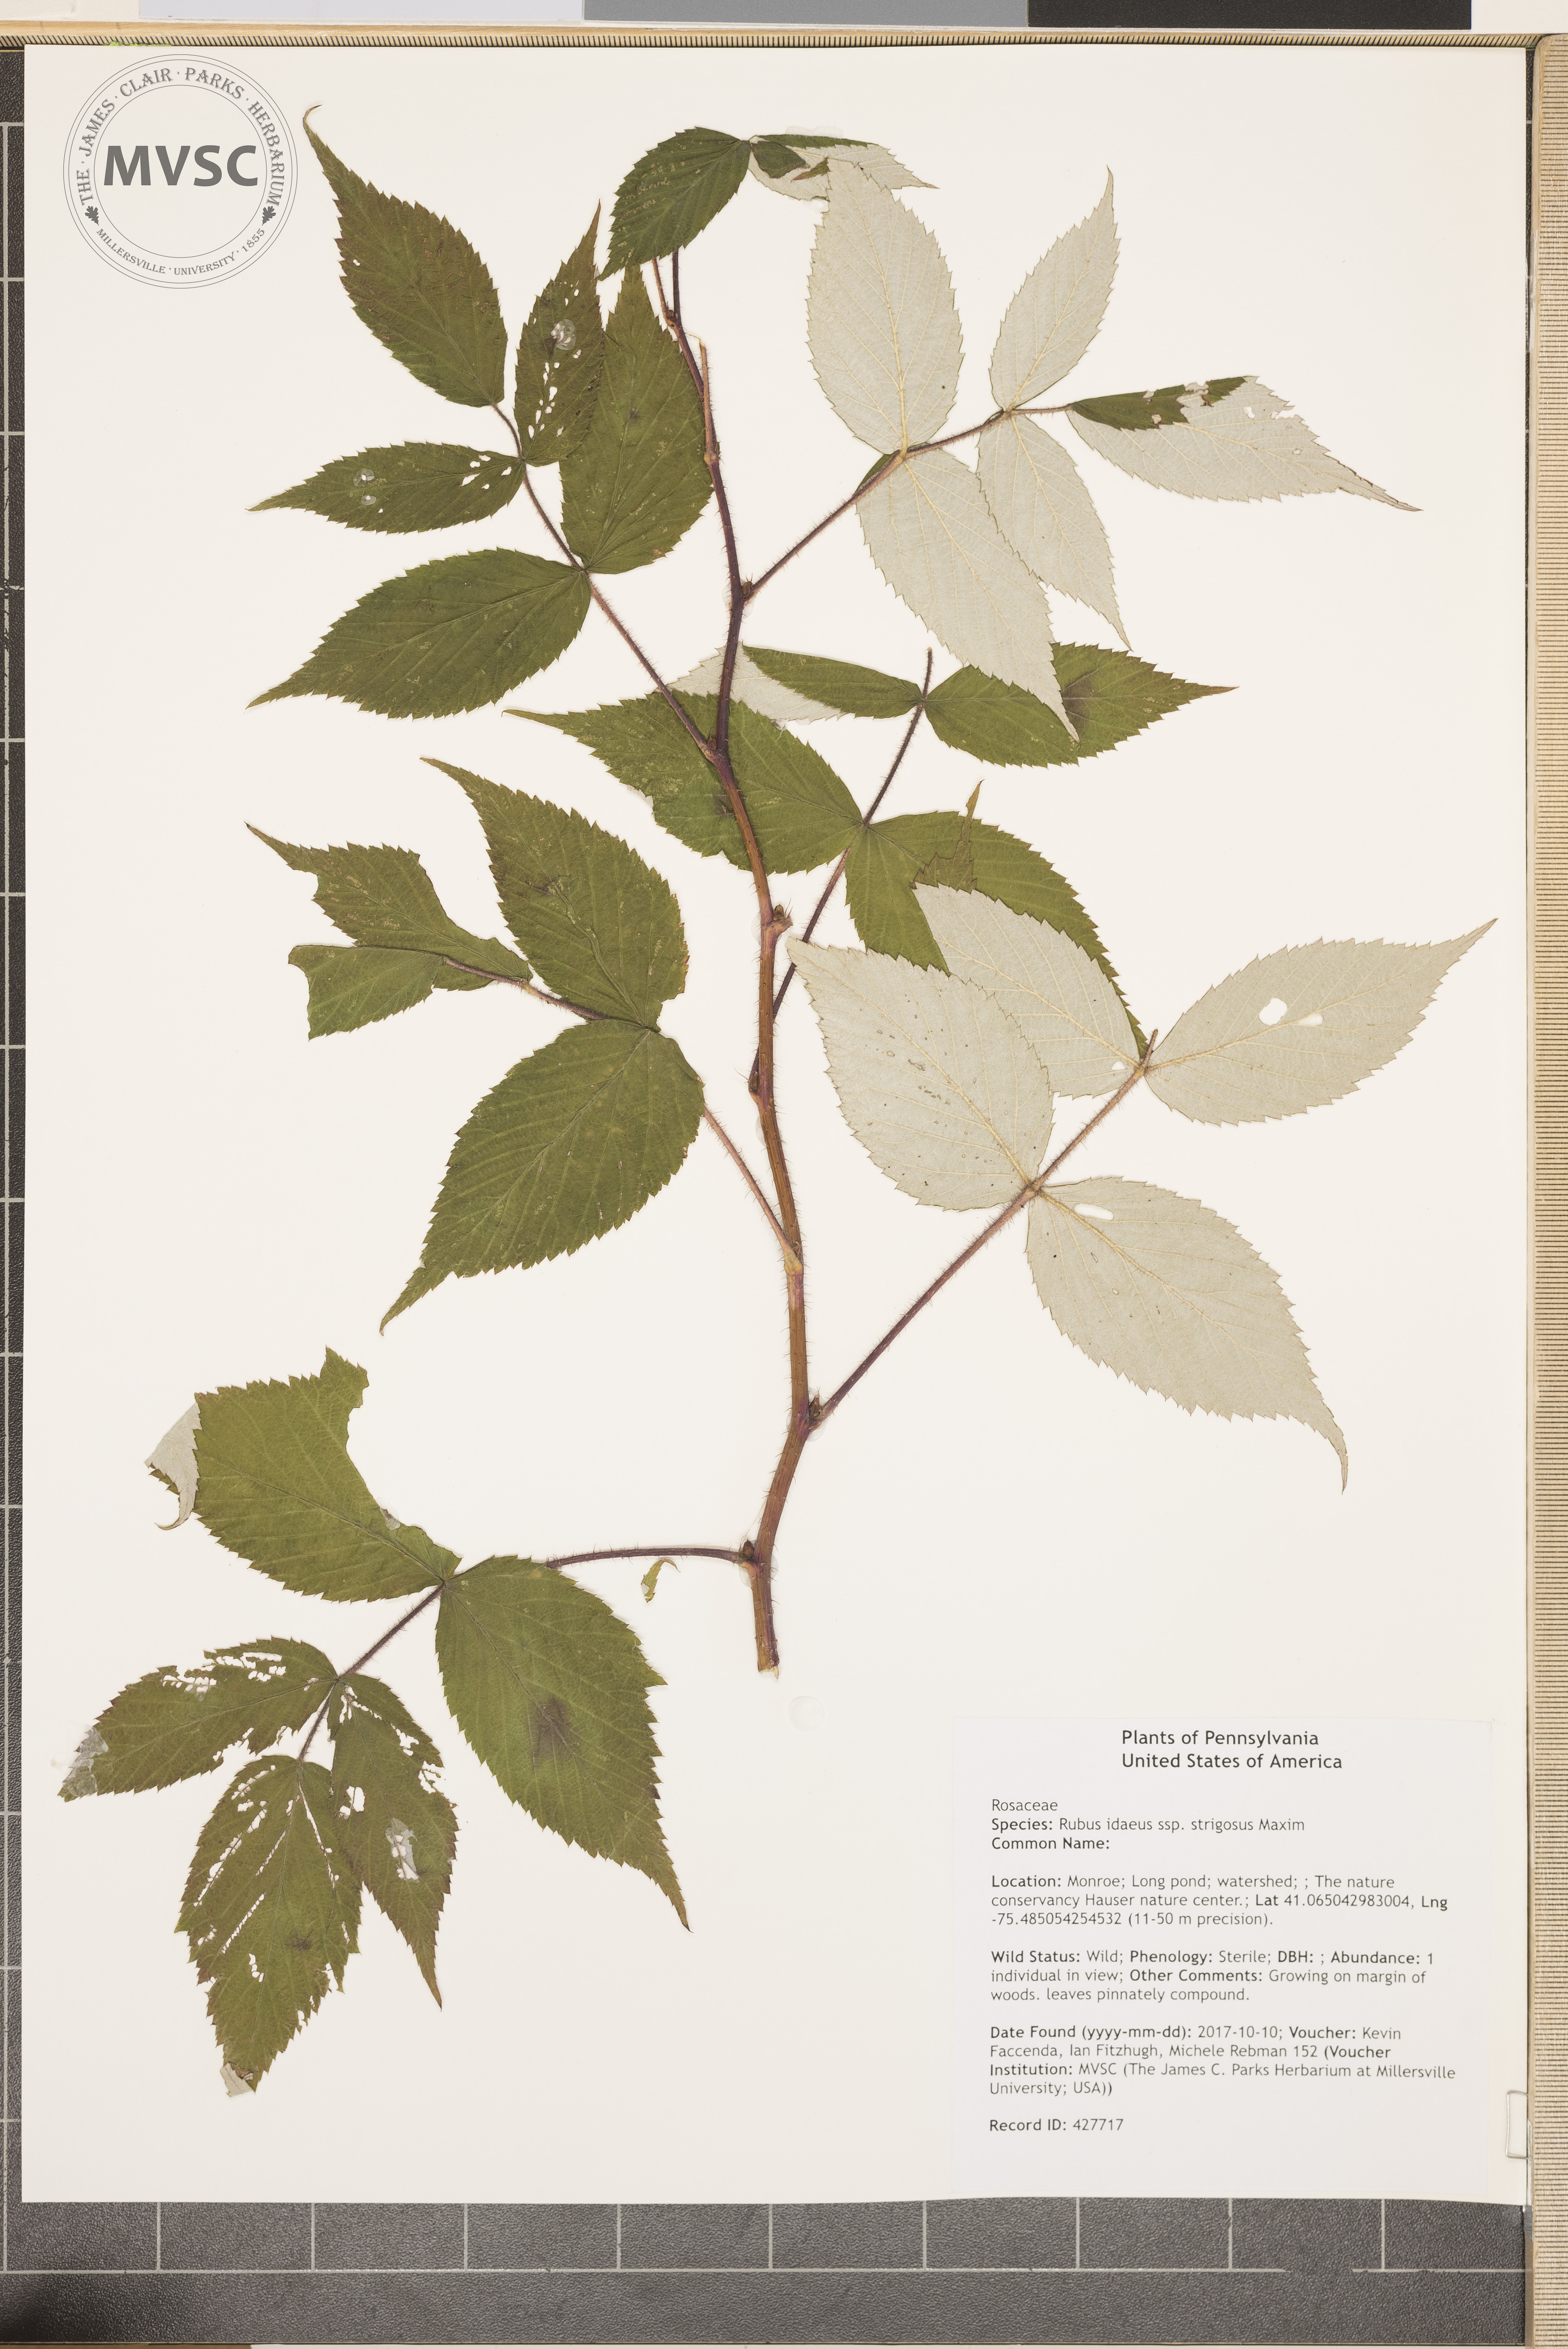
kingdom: Plantae
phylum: Tracheophyta
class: Magnoliopsida
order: Rosales
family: Rosaceae
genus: Rubus
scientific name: Rubus idaeus
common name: Raspberry
